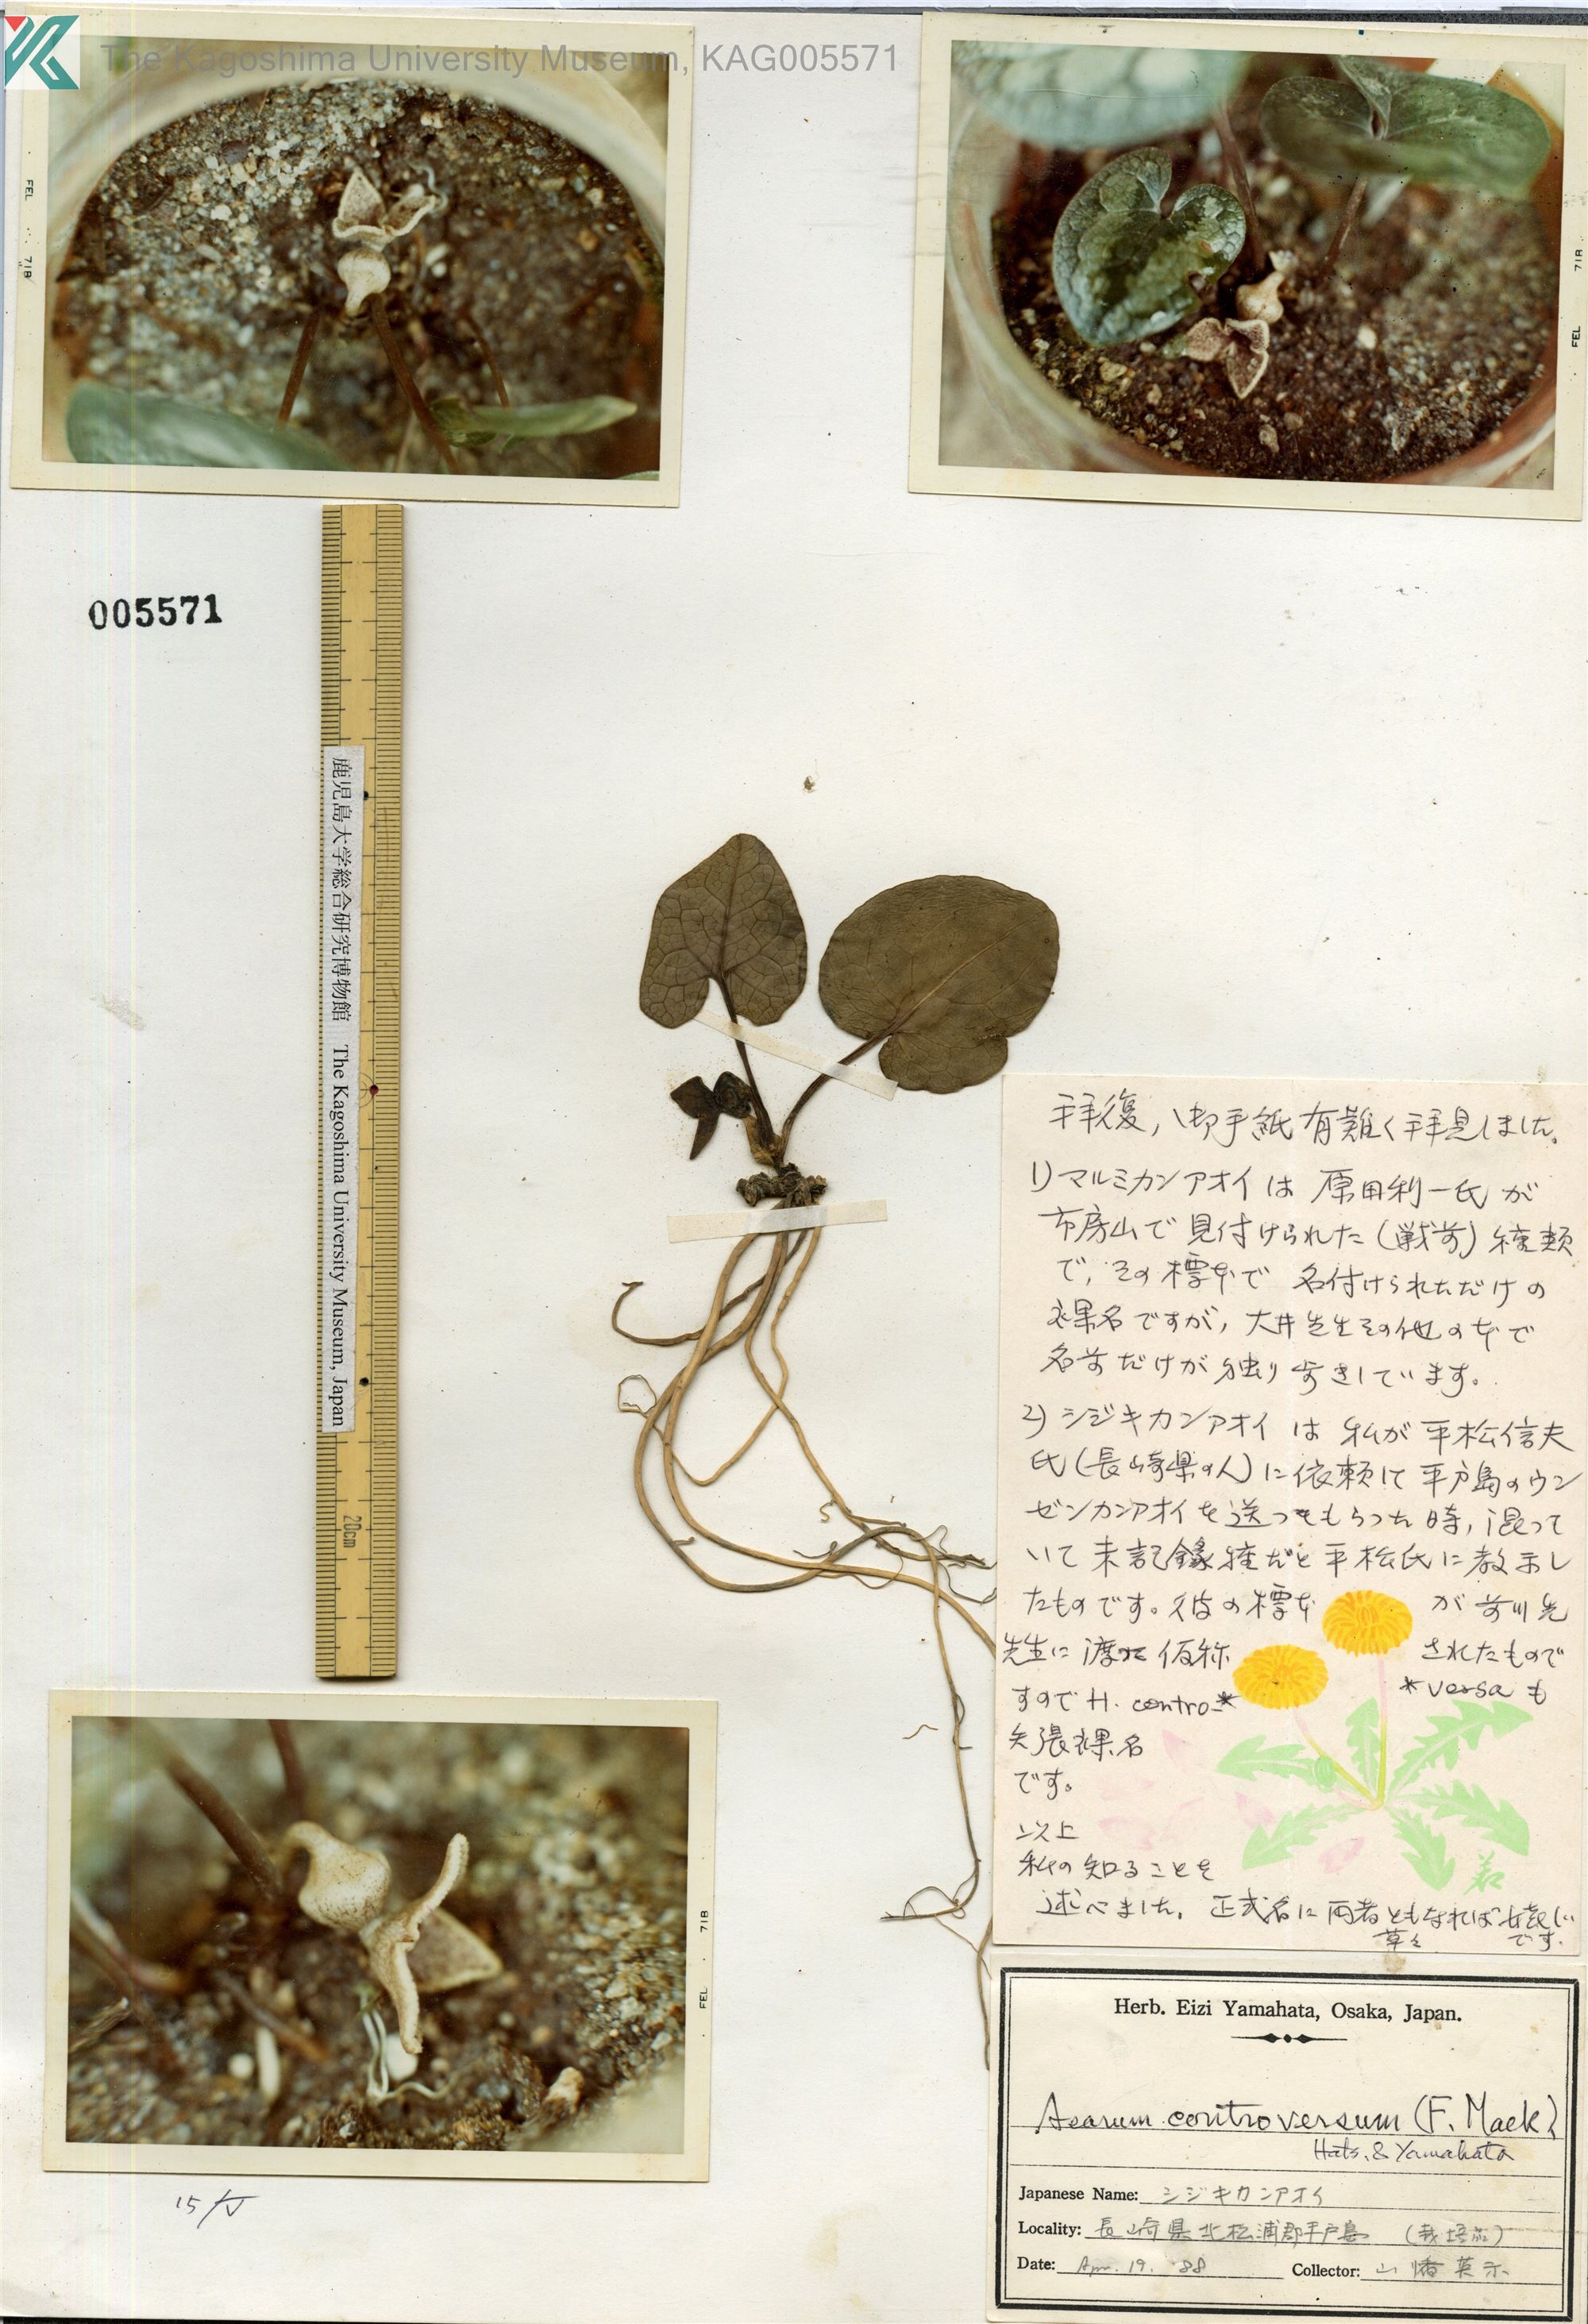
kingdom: Plantae
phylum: Tracheophyta
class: Magnoliopsida
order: Piperales
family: Aristolochiaceae
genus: Asarum
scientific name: Asarum hexalobum
